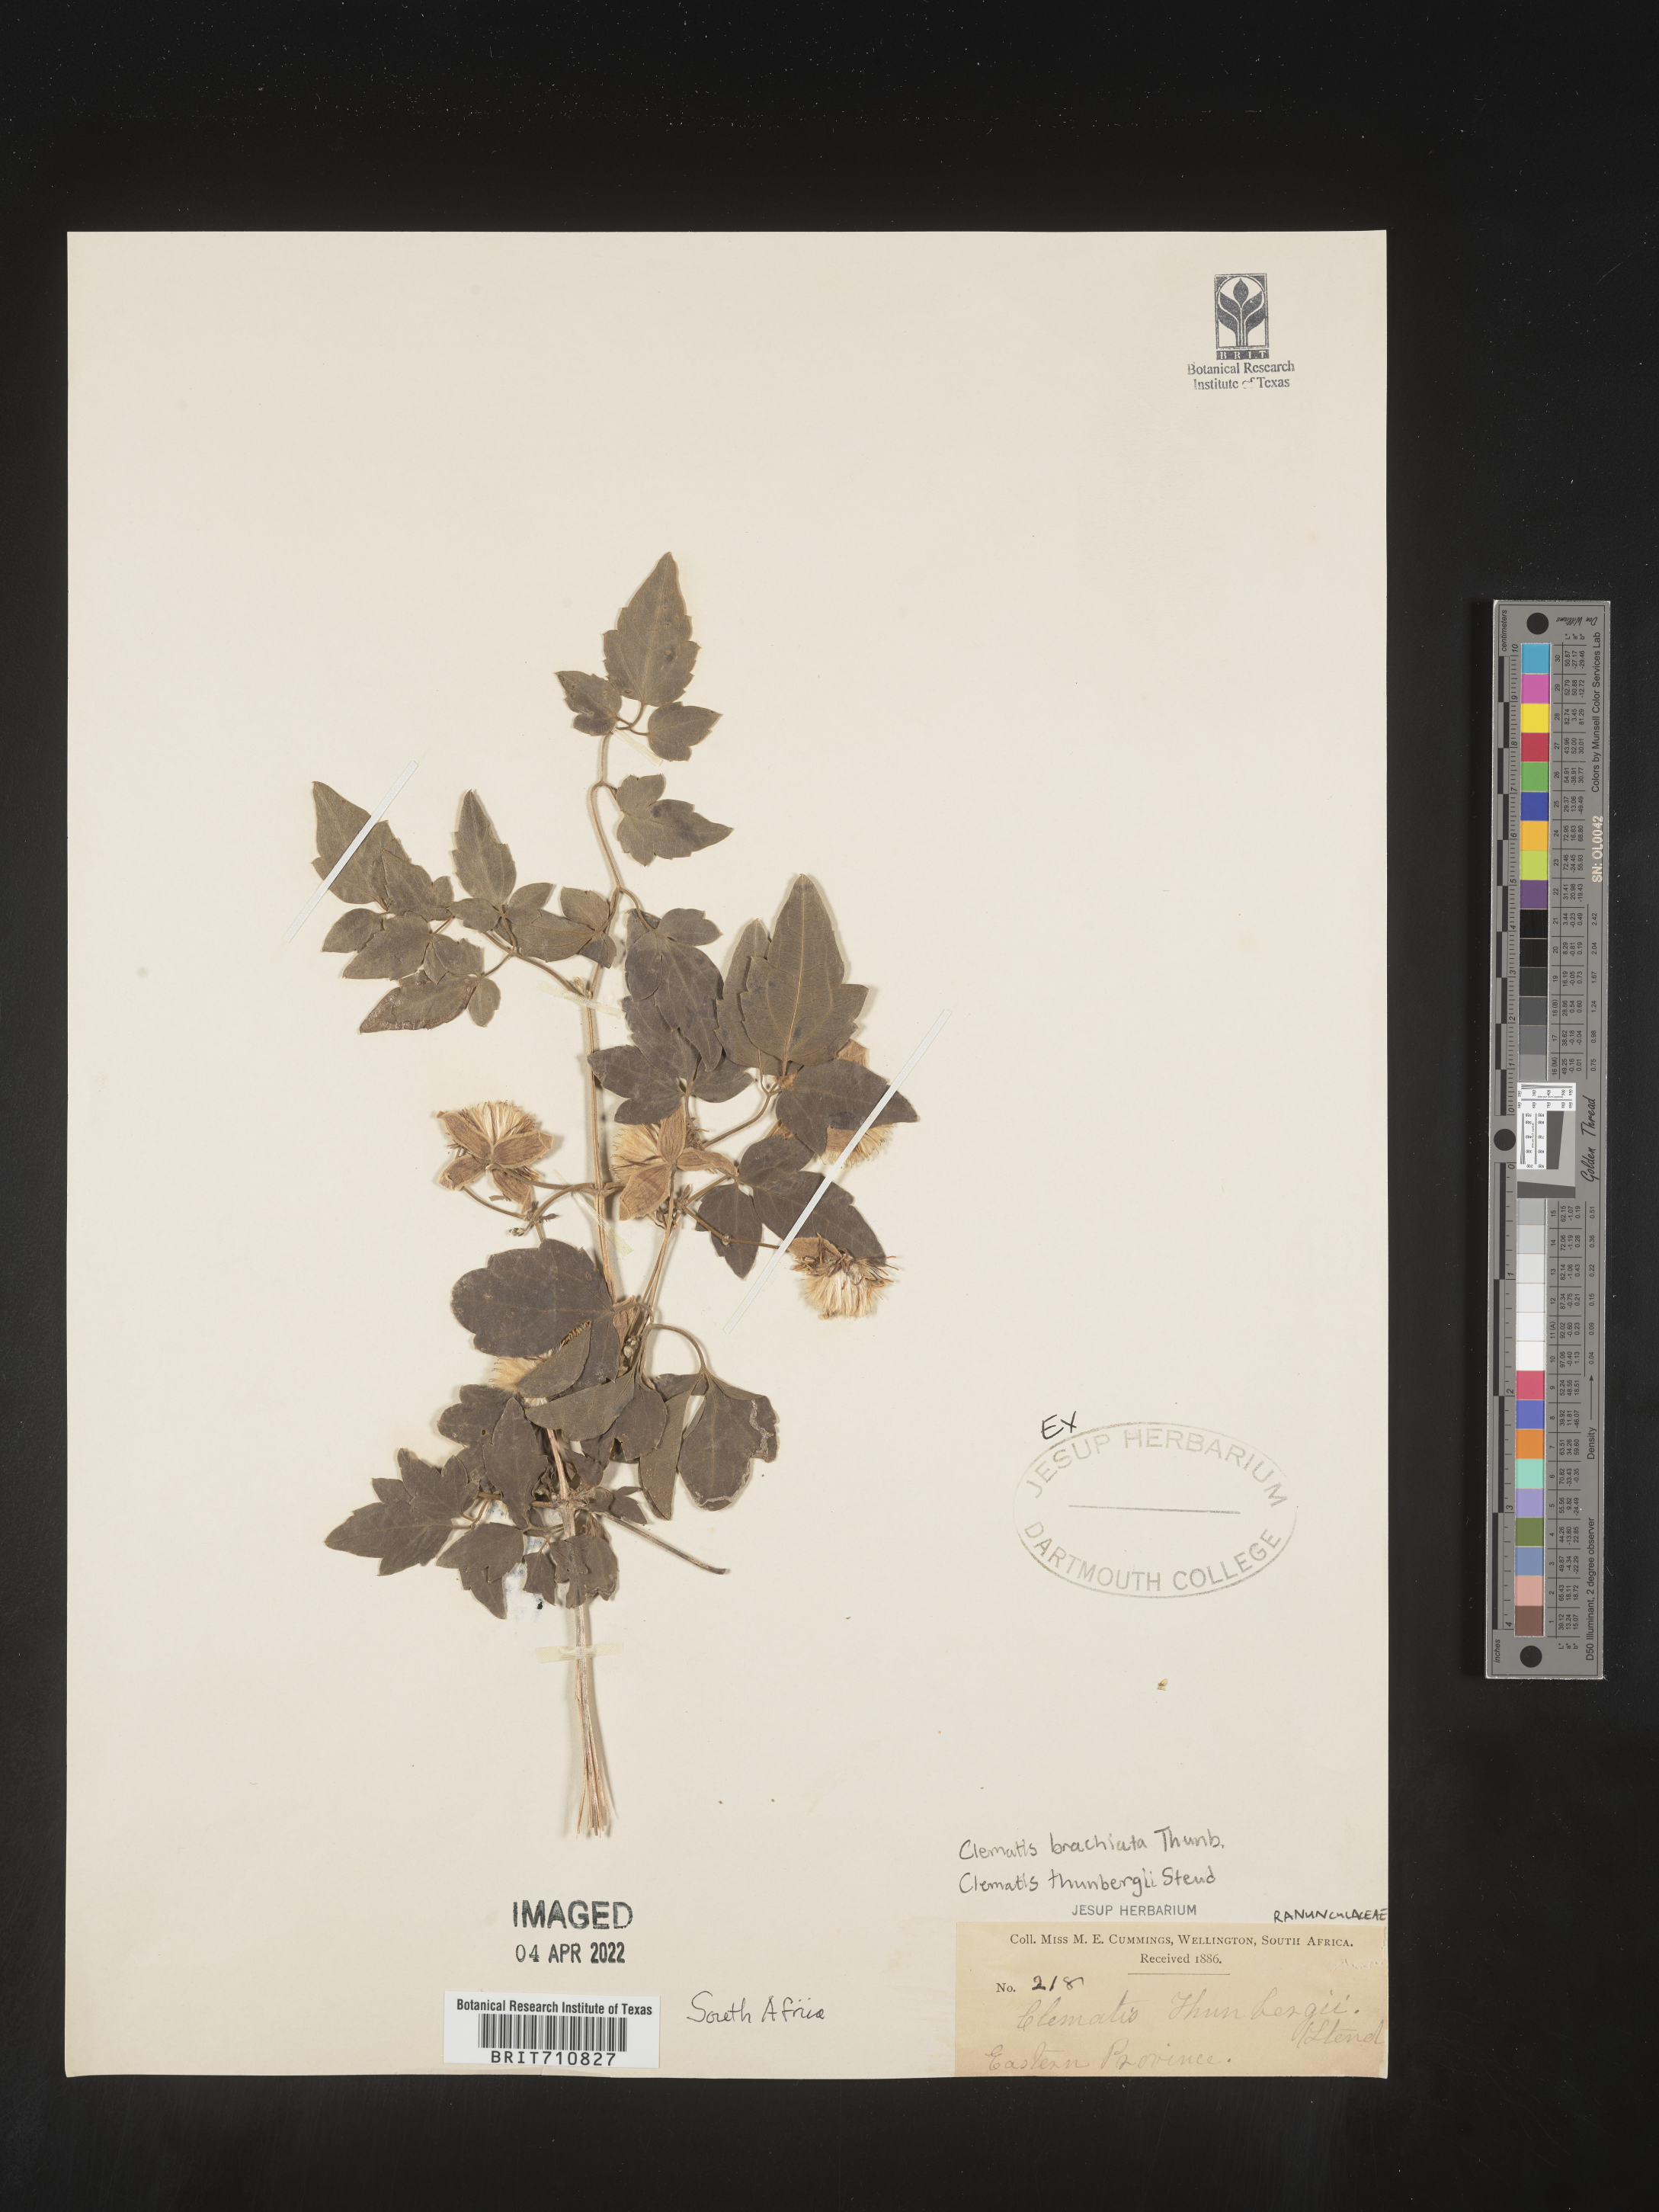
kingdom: Plantae
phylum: Tracheophyta
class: Magnoliopsida
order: Ranunculales
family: Ranunculaceae
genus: Clematis
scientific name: Clematis
